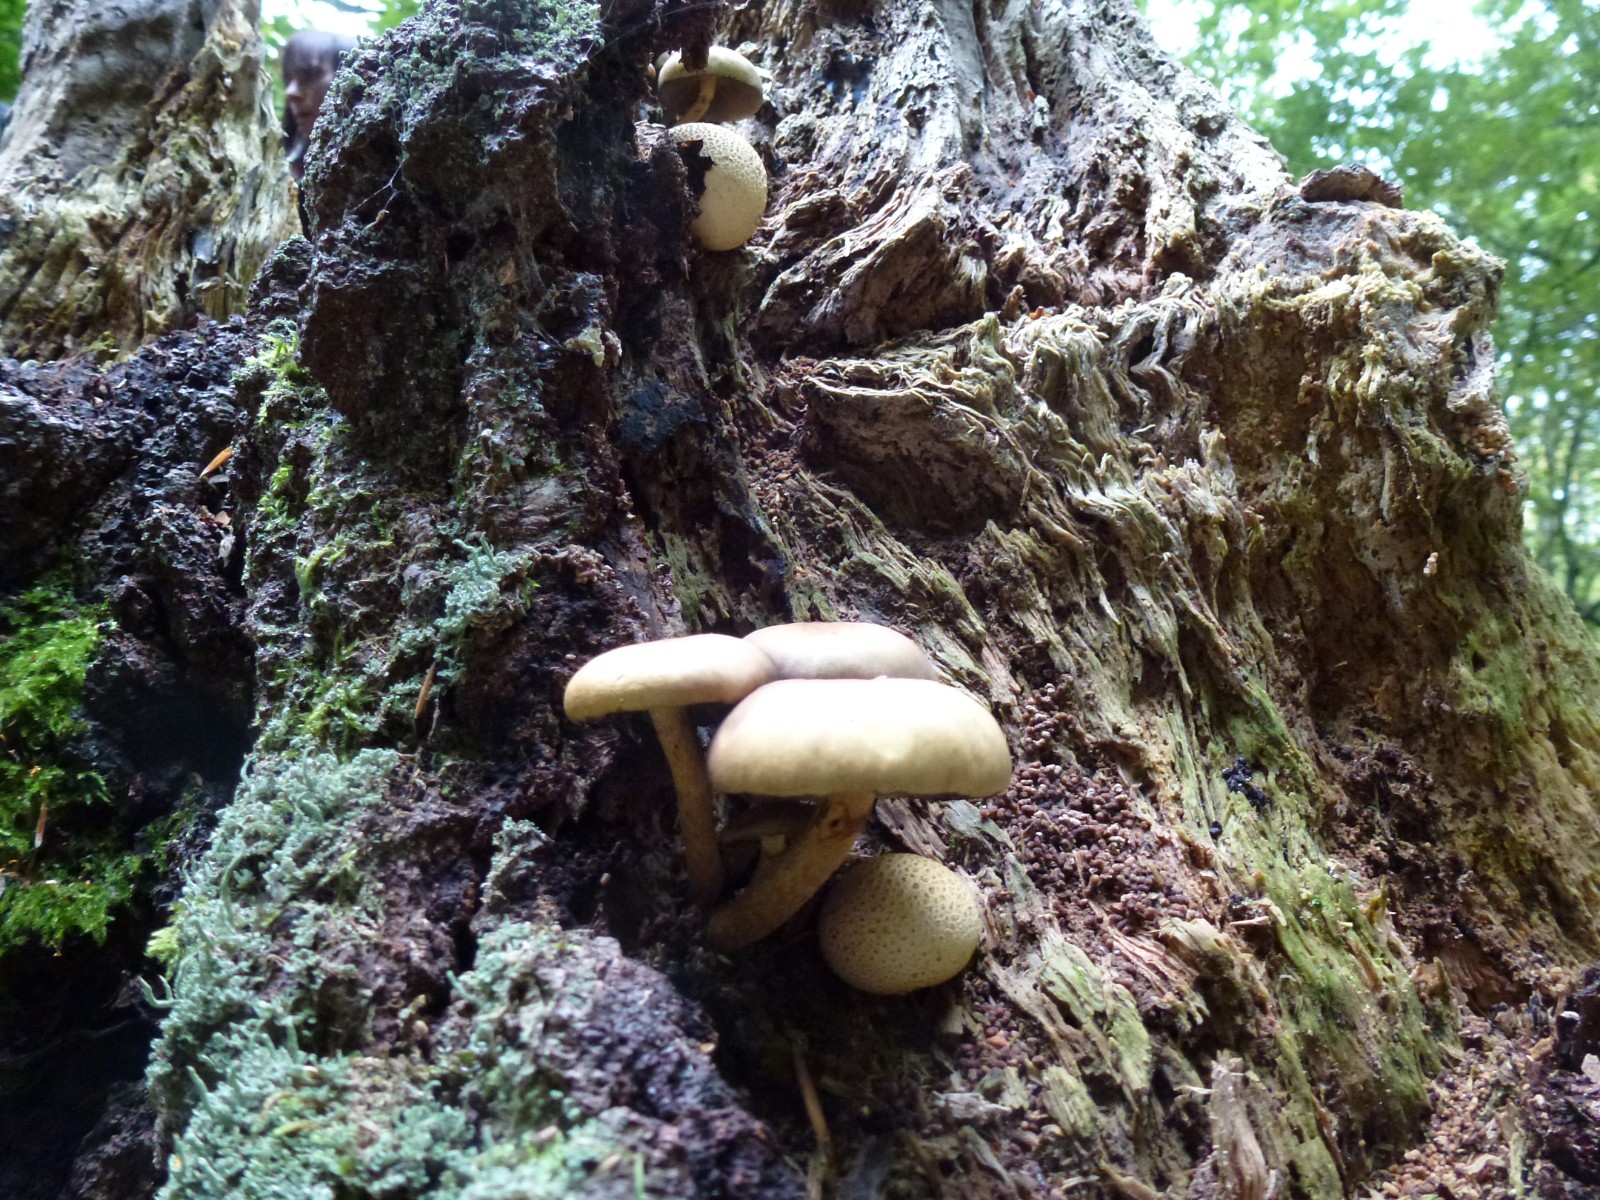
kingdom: Fungi
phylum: Basidiomycota
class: Agaricomycetes
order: Agaricales
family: Physalacriaceae
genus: Armillaria
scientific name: Armillaria lutea
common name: køllestokket honningsvamp
